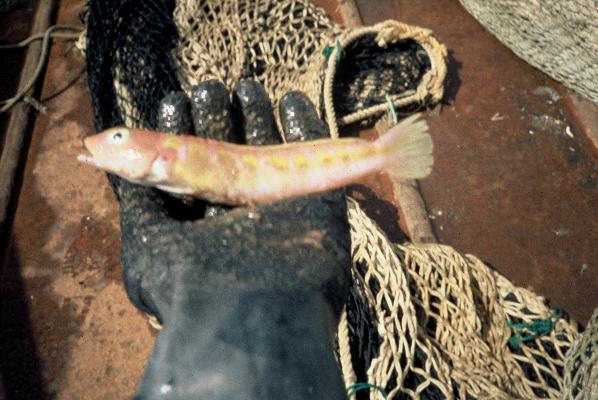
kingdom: Animalia
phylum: Chordata
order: Perciformes
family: Pinguipedidae
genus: Parapercis
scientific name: Parapercis maritzi
